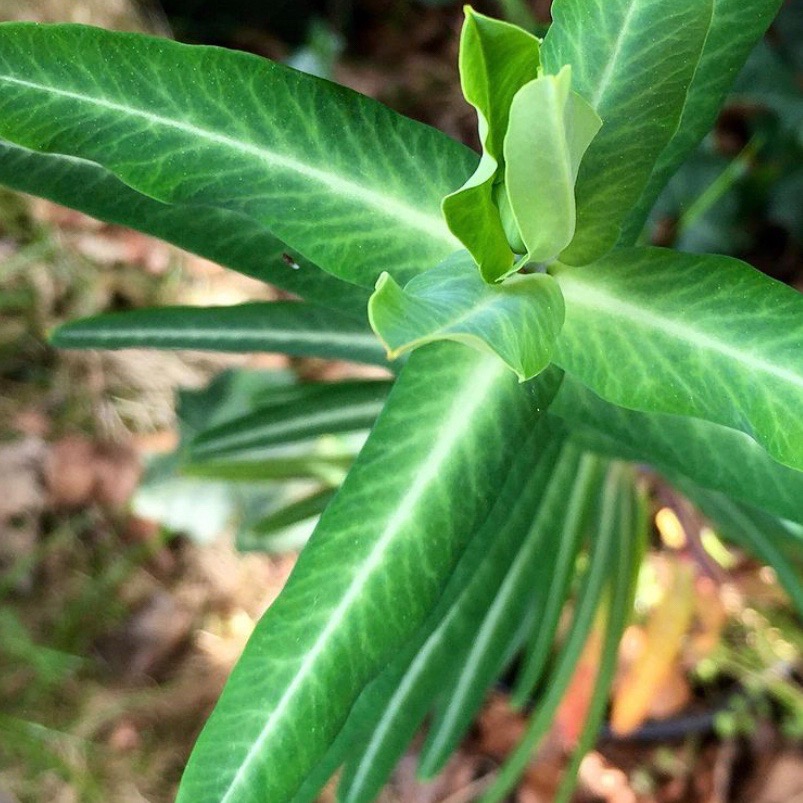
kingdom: Plantae
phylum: Tracheophyta
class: Magnoliopsida
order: Malpighiales
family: Euphorbiaceae
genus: Euphorbia
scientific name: Euphorbia lathyris
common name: Kors-vortemælk
